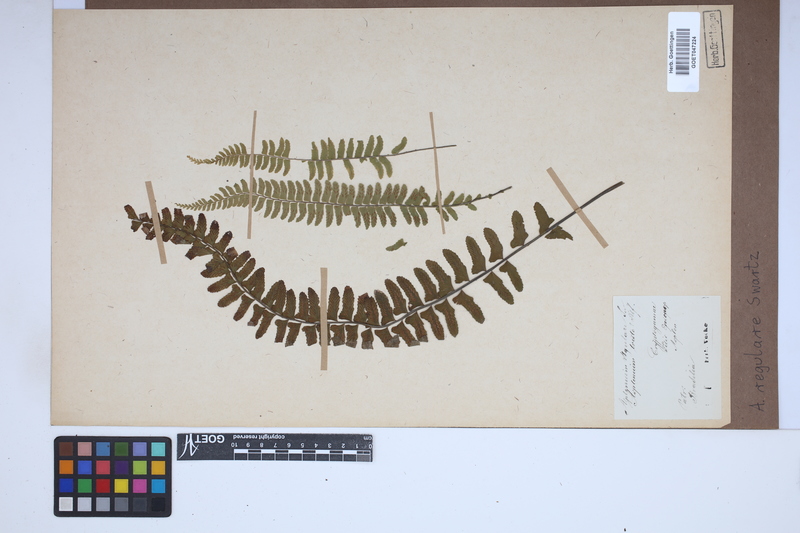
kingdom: Plantae
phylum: Tracheophyta
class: Polypodiopsida
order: Polypodiales
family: Aspleniaceae
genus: Asplenium
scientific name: Asplenium regulare
